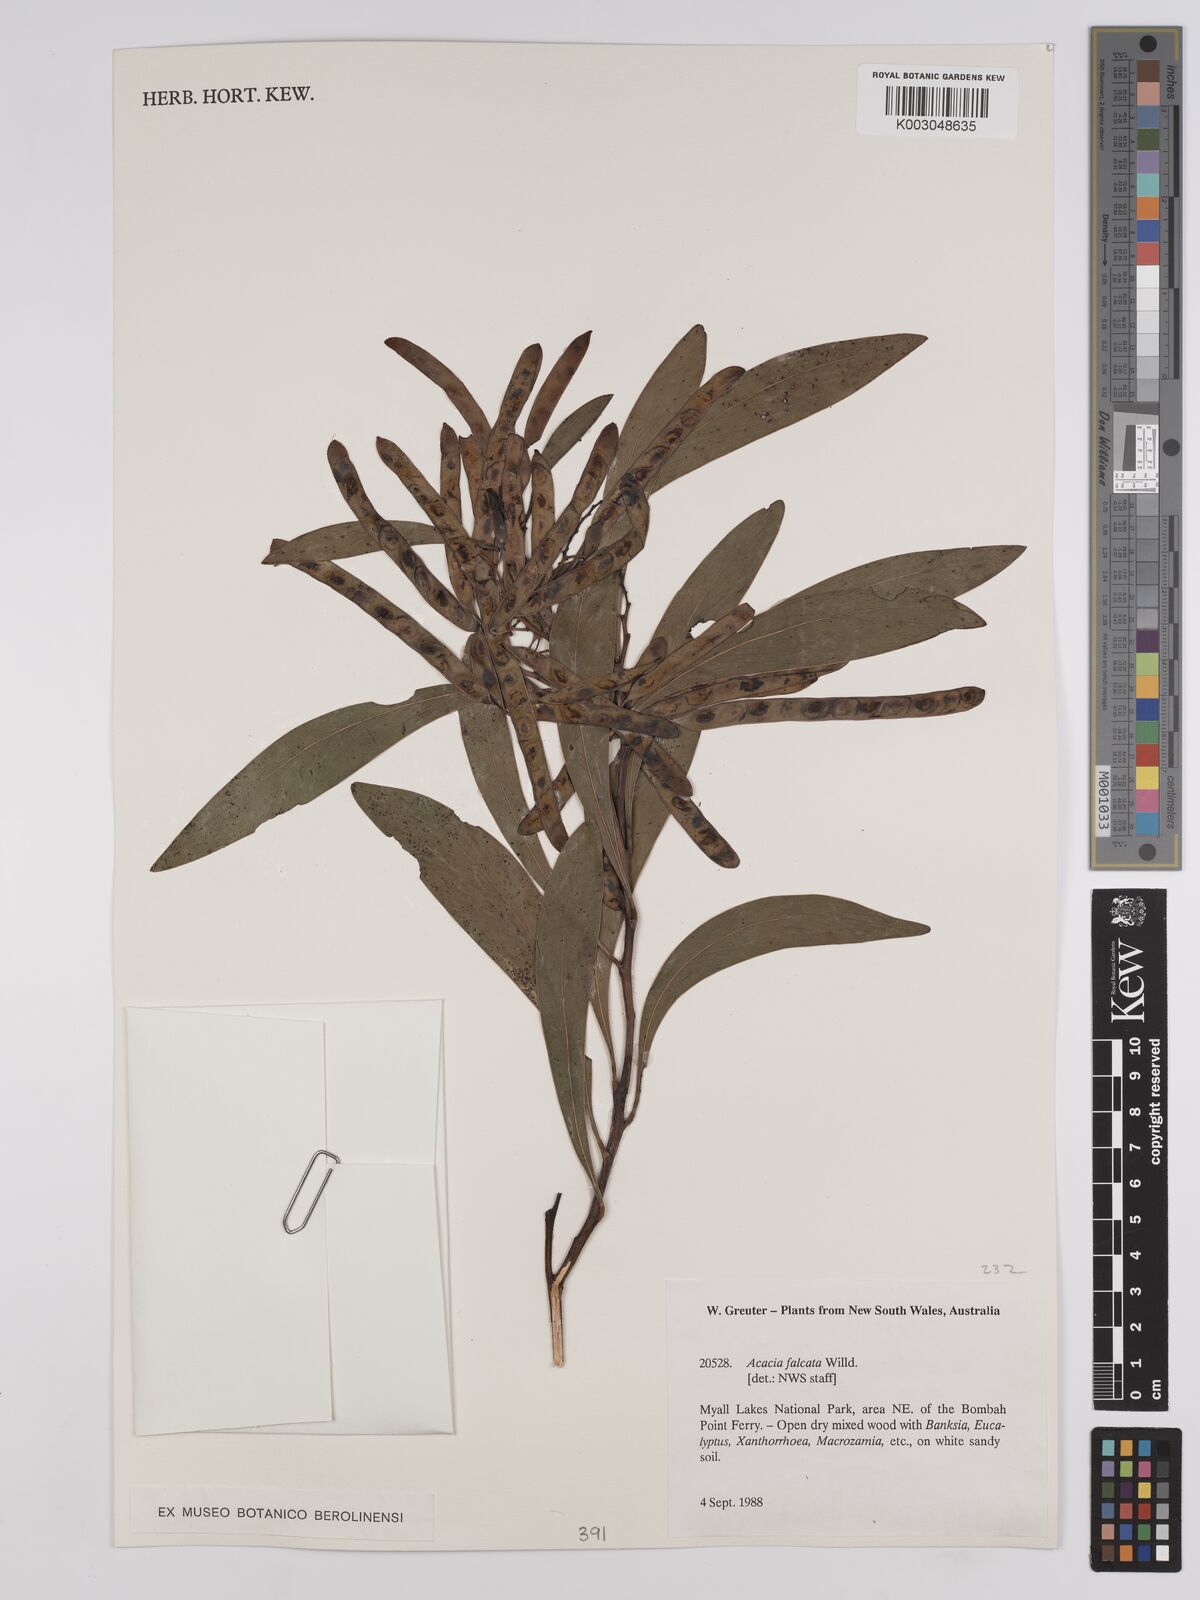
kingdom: Plantae
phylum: Tracheophyta
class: Magnoliopsida
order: Fabales
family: Fabaceae
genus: Acacia
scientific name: Acacia falcata
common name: Burra acacia
